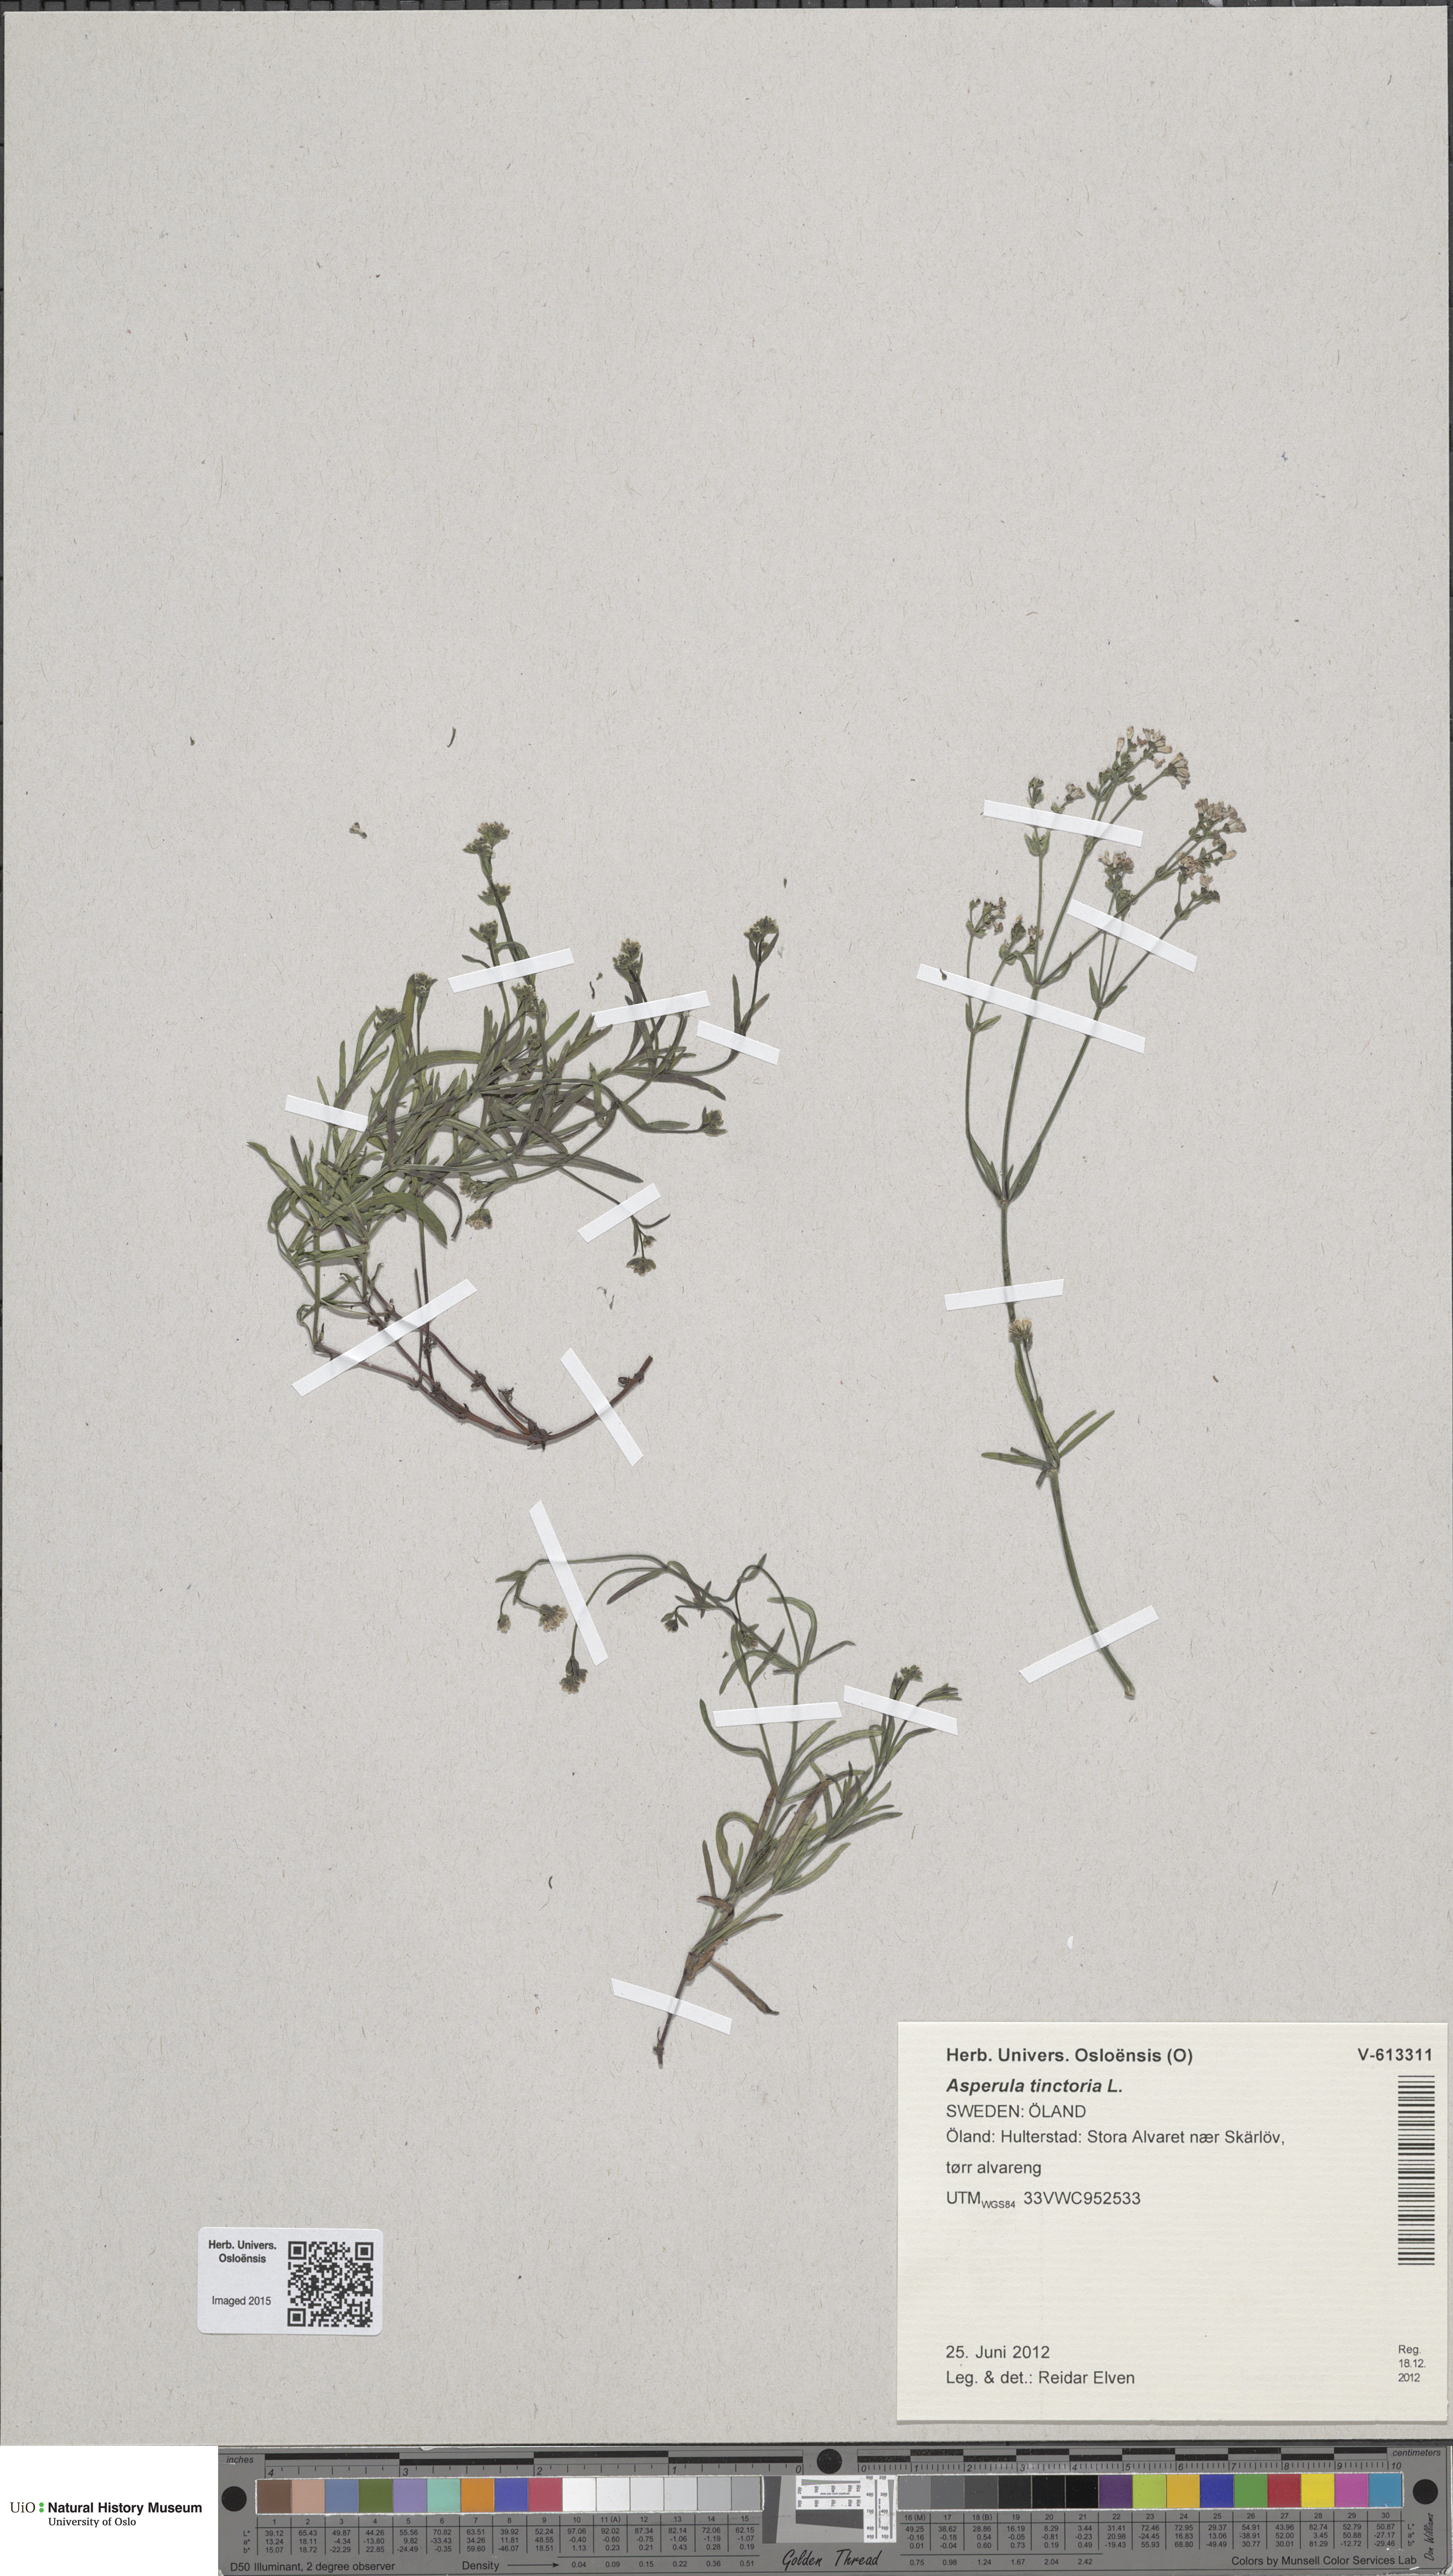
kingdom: Plantae
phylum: Tracheophyta
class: Magnoliopsida
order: Gentianales
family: Rubiaceae
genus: Asperula
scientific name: Asperula tinctoria
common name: Dyer's woodruff
